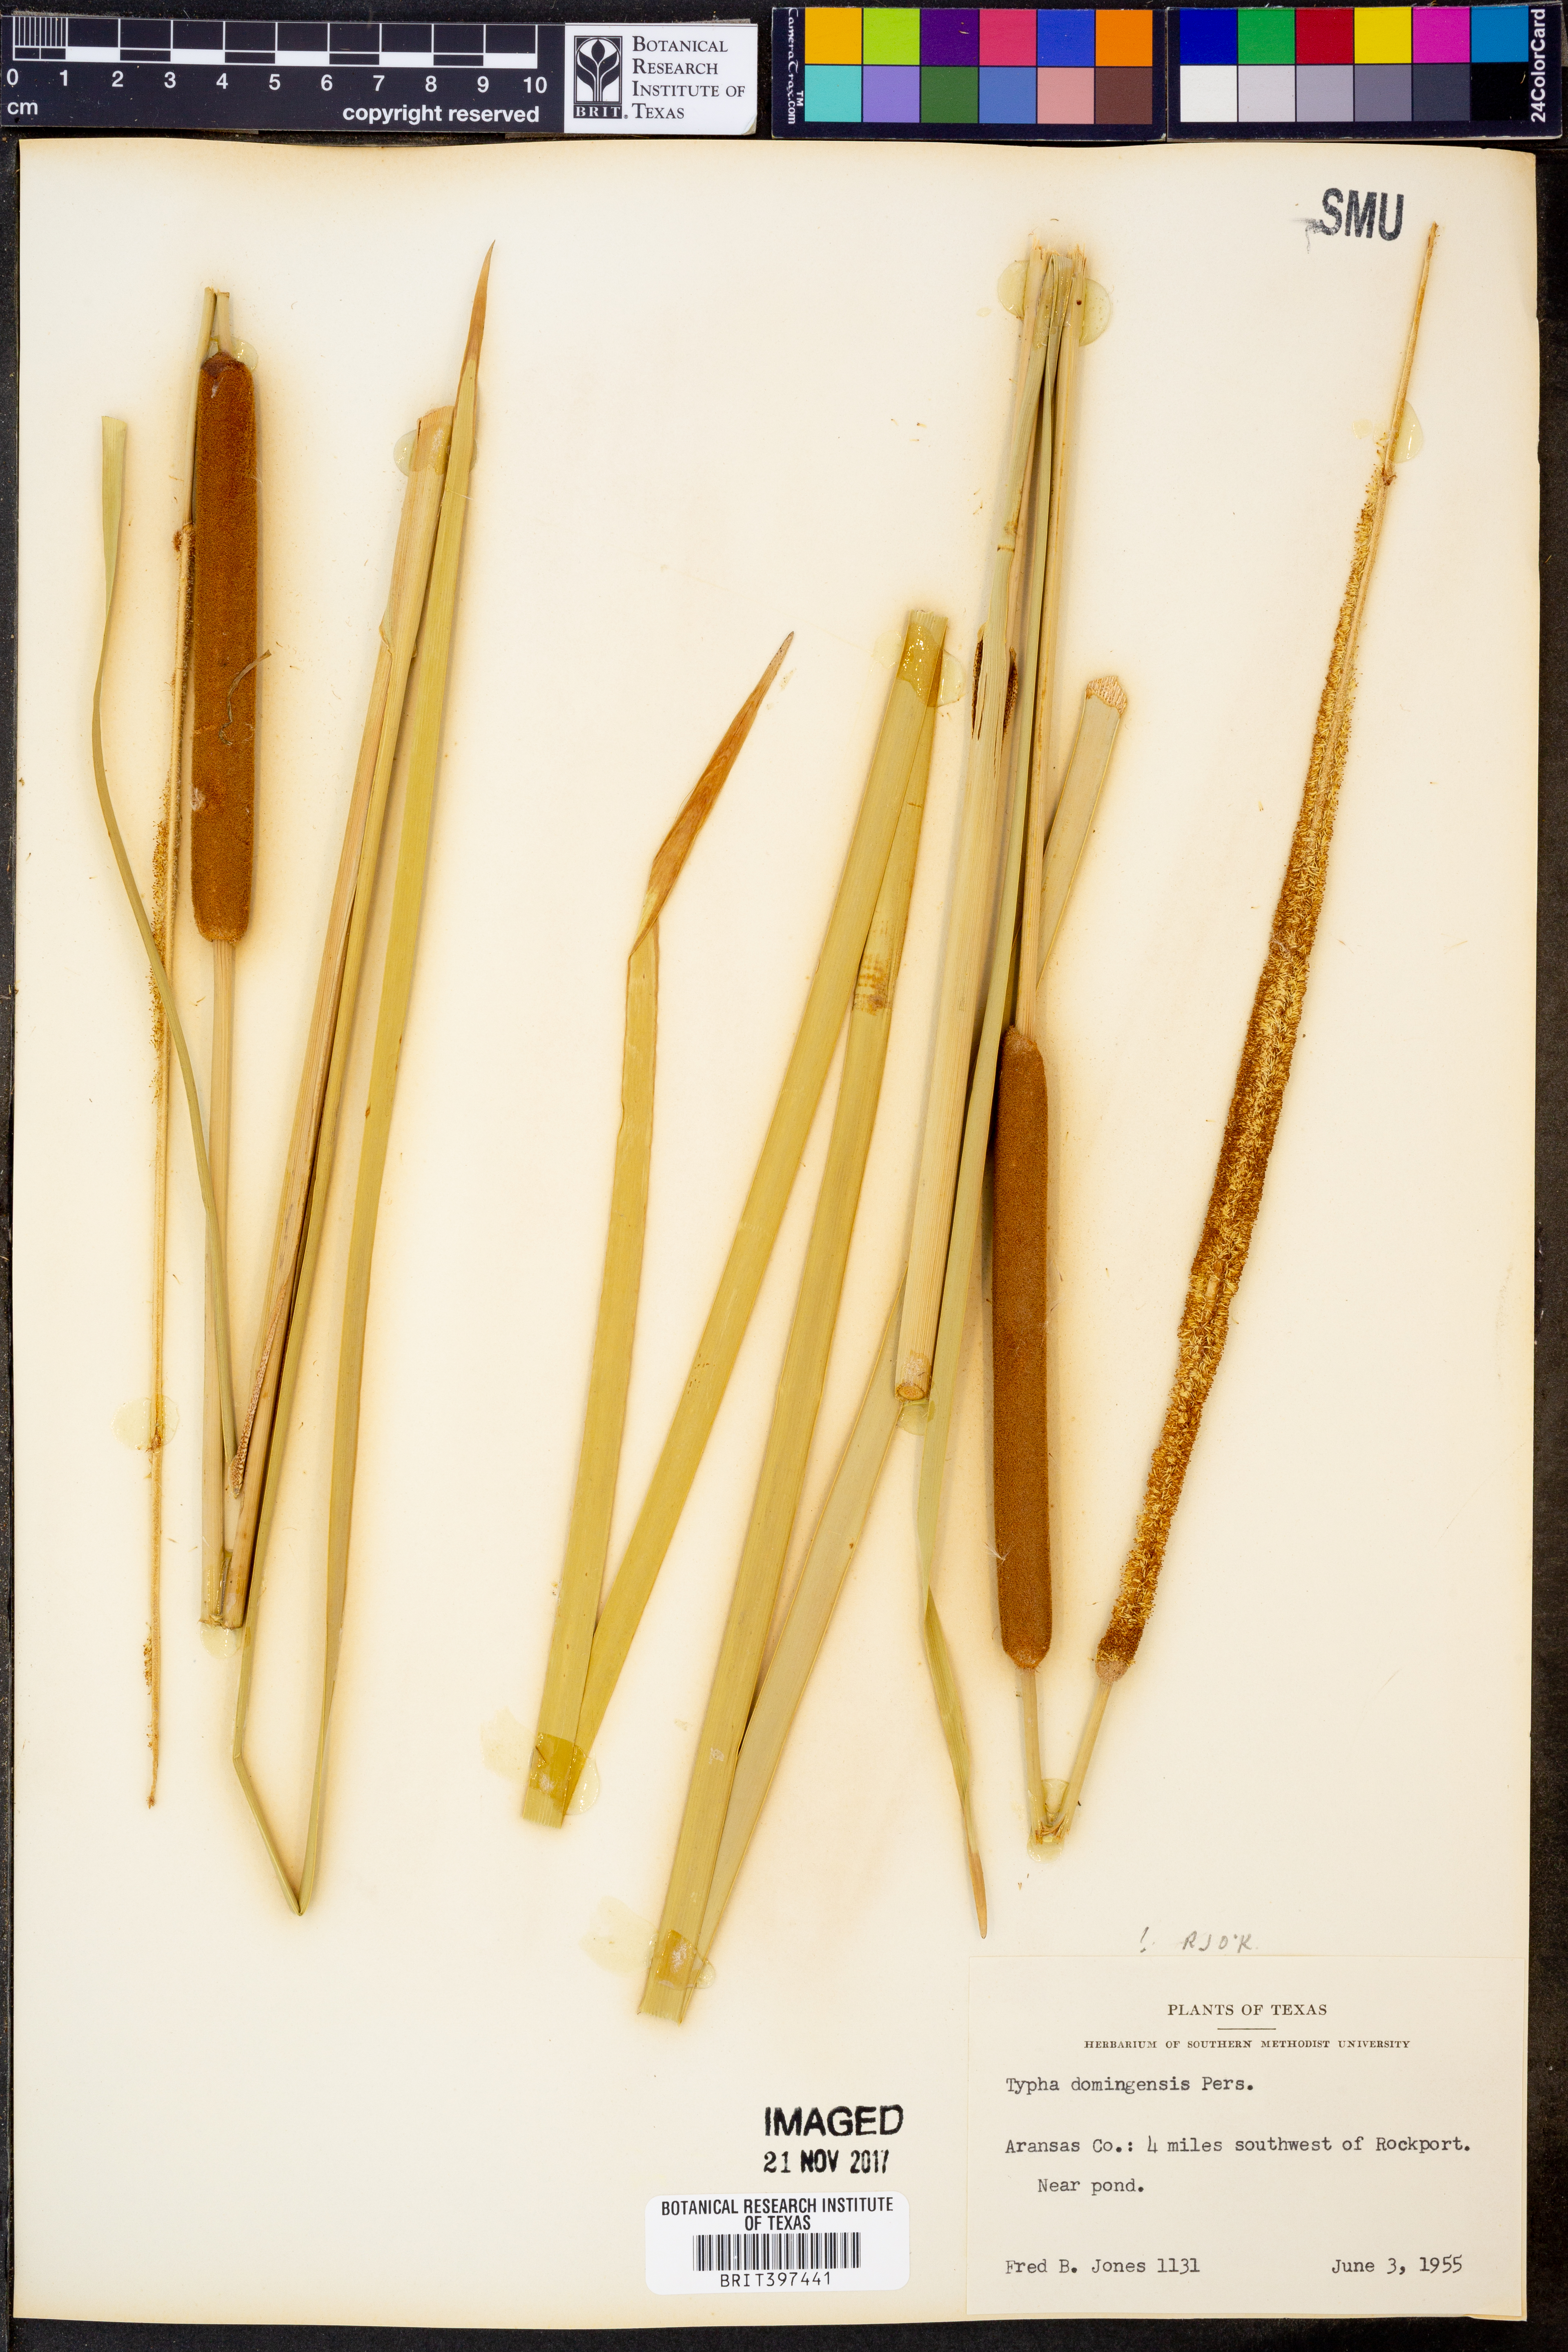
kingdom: Plantae
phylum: Tracheophyta
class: Liliopsida
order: Poales
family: Typhaceae
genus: Typha
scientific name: Typha domingensis
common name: Southern cattail
